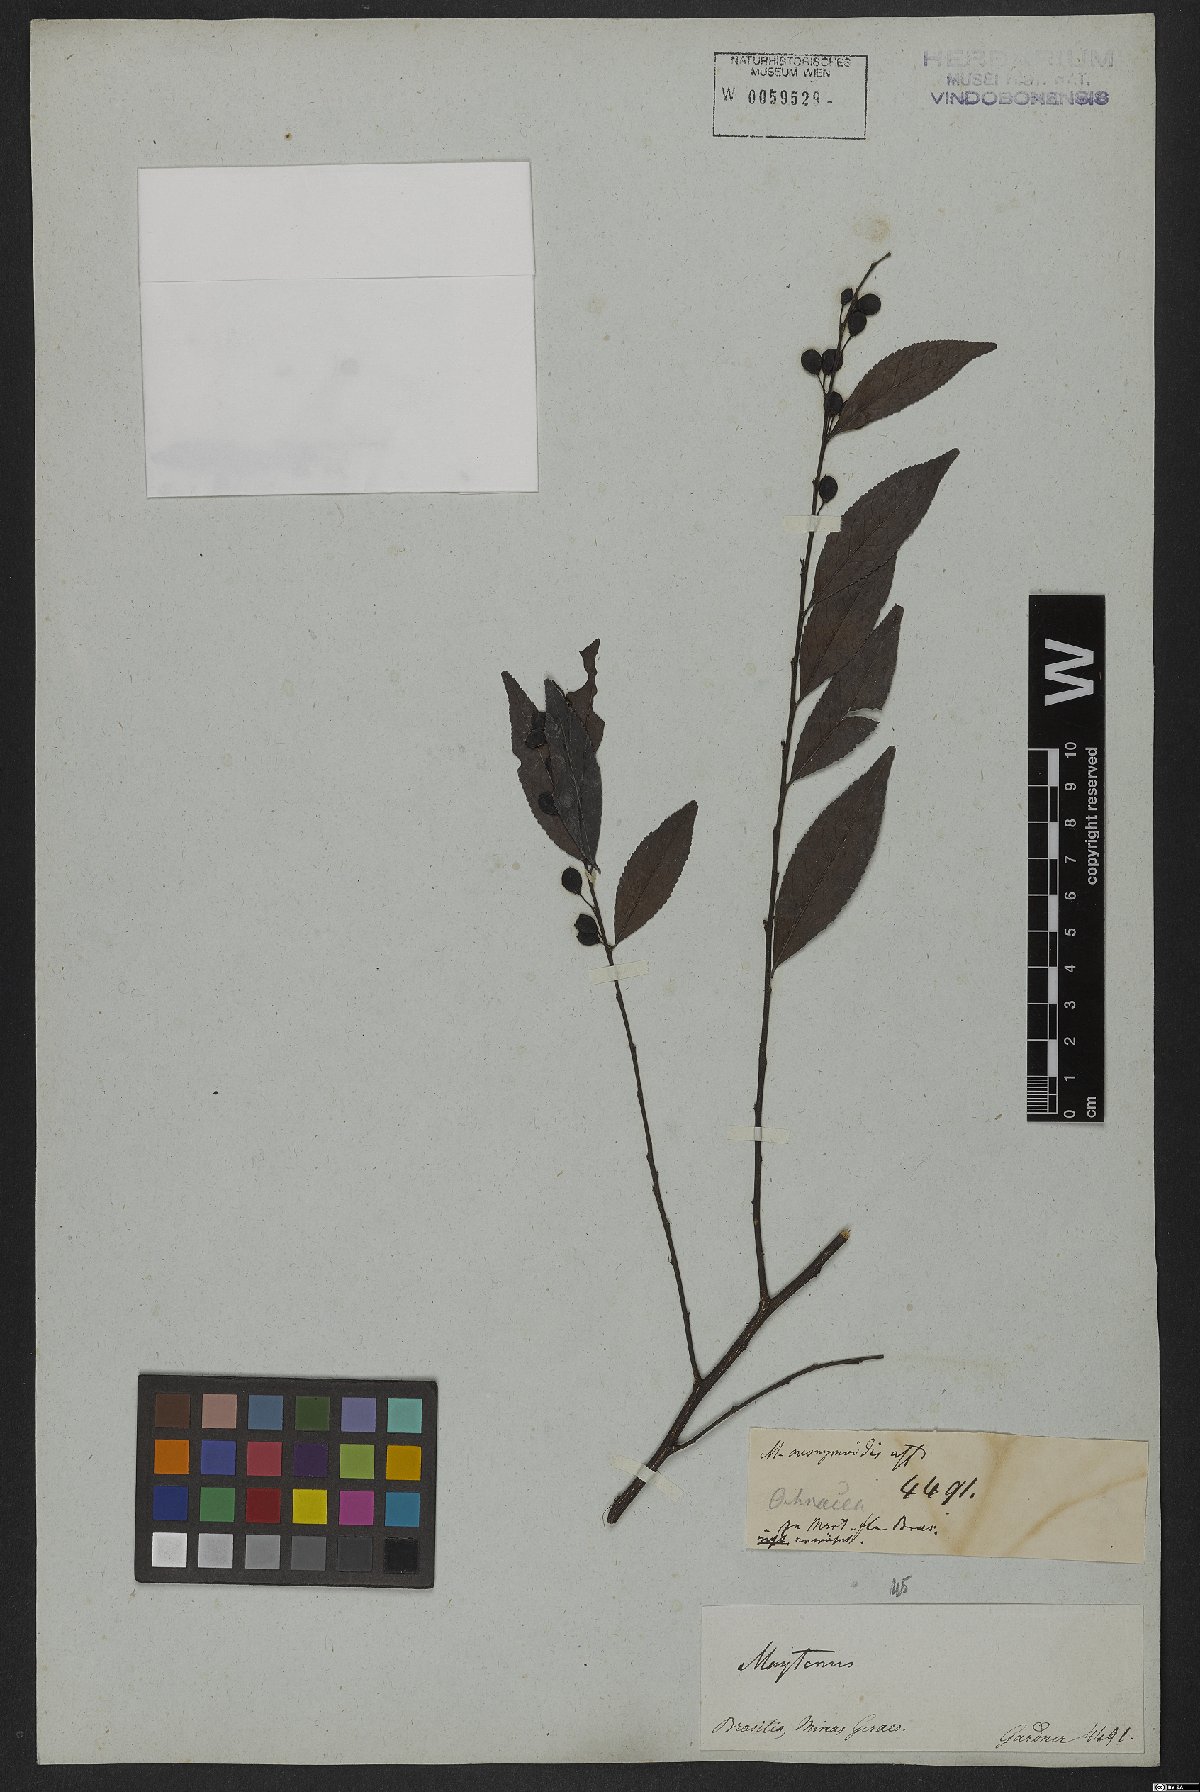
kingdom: Plantae
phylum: Tracheophyta
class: Magnoliopsida
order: Celastrales
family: Celastraceae
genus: Monteverdia
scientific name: Monteverdia evonymoides
